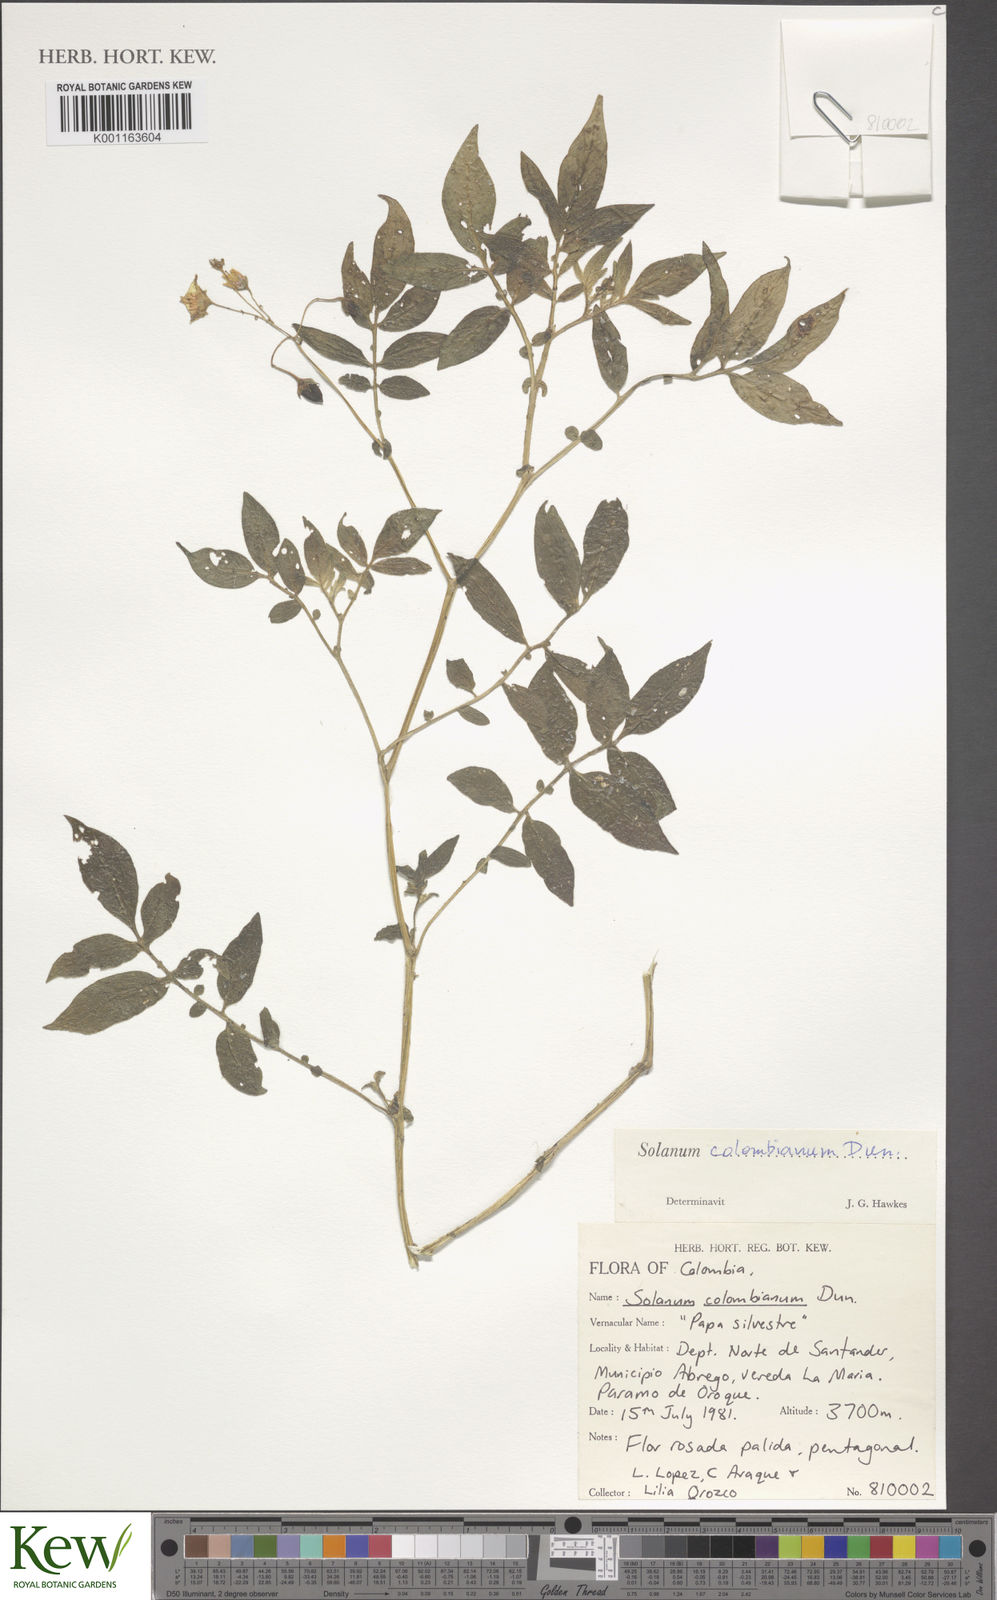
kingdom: Plantae
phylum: Tracheophyta
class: Magnoliopsida
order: Solanales
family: Solanaceae
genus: Solanum
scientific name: Solanum colombianum
